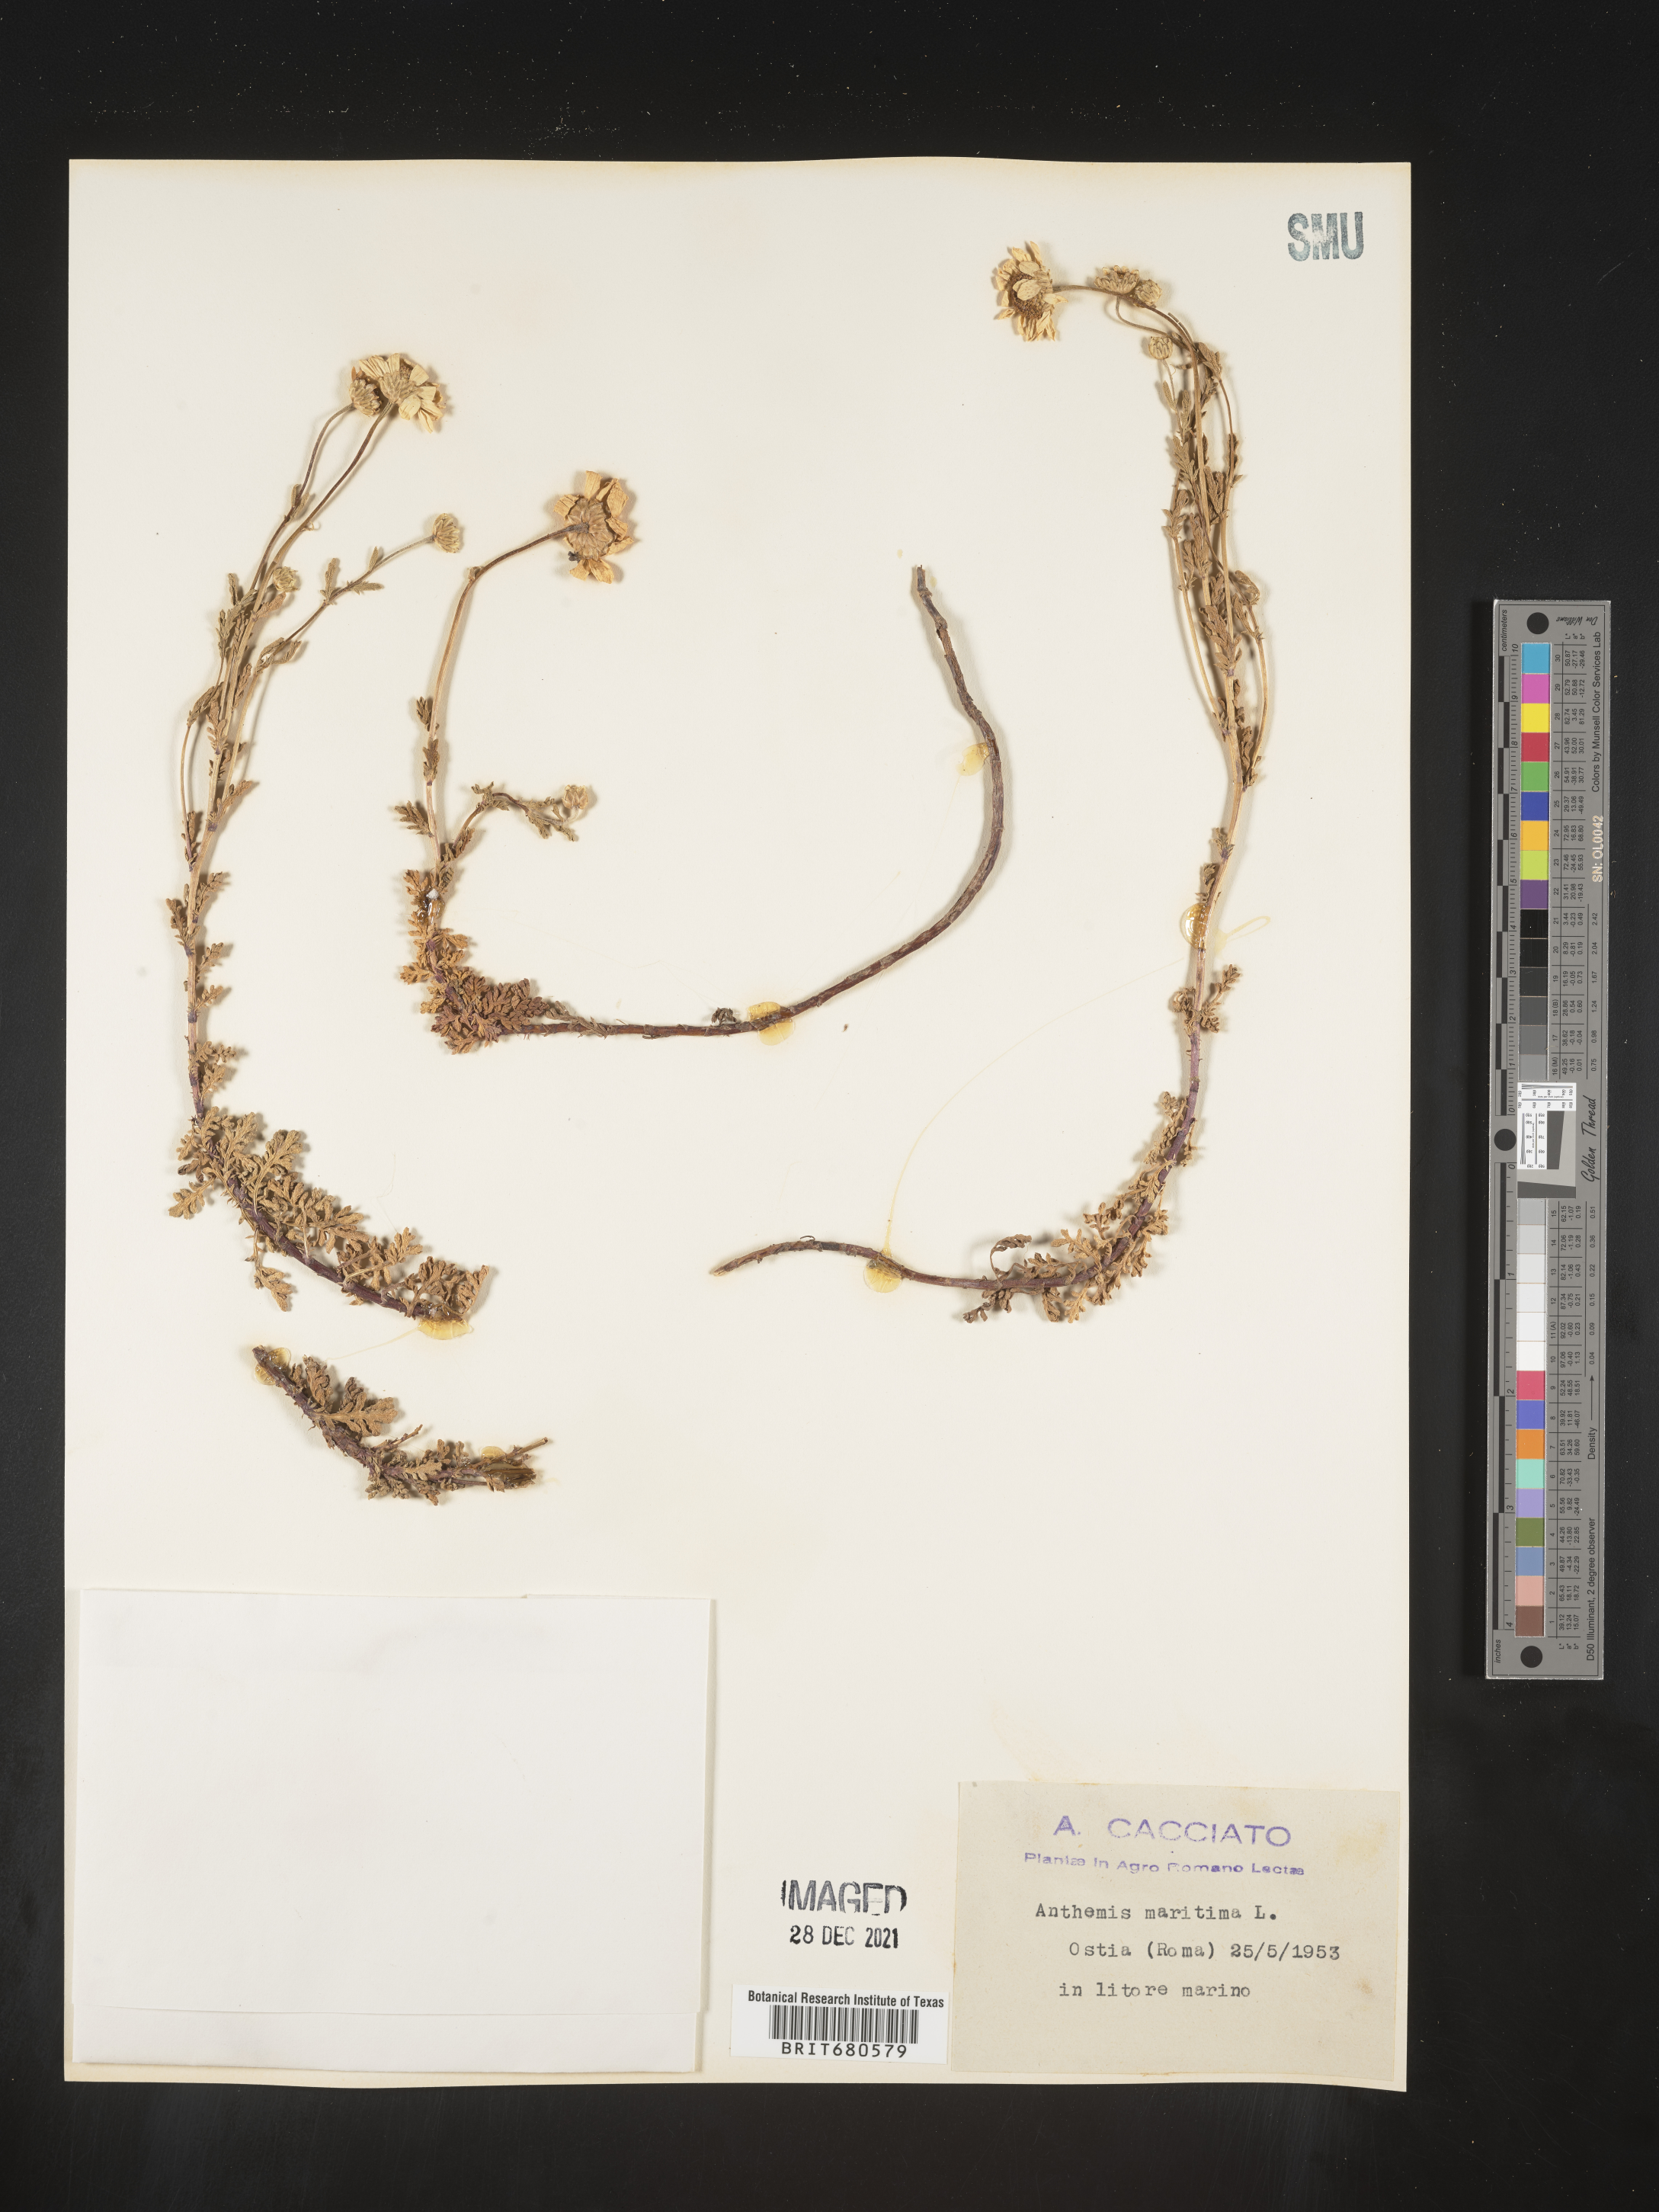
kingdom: Plantae
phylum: Tracheophyta
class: Magnoliopsida
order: Asterales
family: Asteraceae
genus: Anthemis
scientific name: Anthemis
